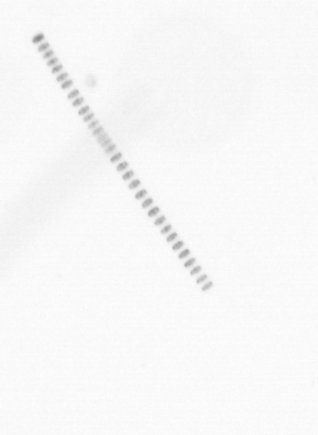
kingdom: Chromista
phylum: Ochrophyta
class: Bacillariophyceae
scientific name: Bacillariophyceae
